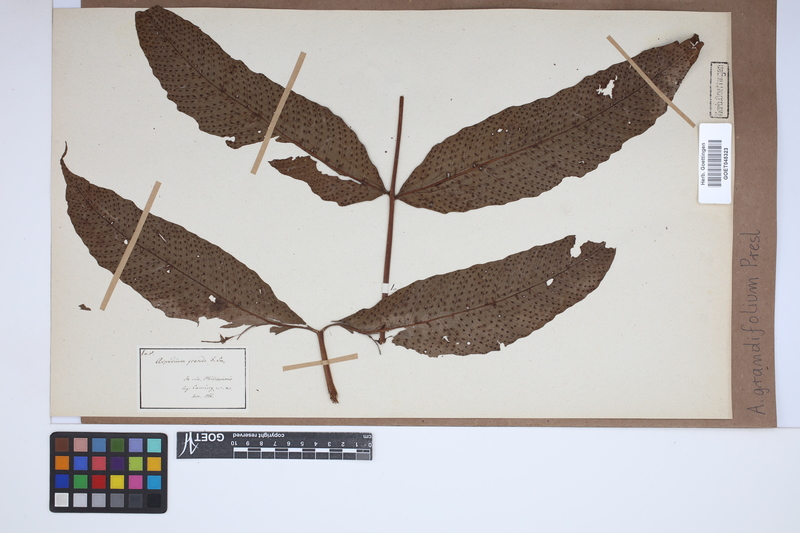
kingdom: Plantae
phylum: Tracheophyta
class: Polypodiopsida
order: Polypodiales
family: Tectariaceae
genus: Tectaria
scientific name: Tectaria crenata
